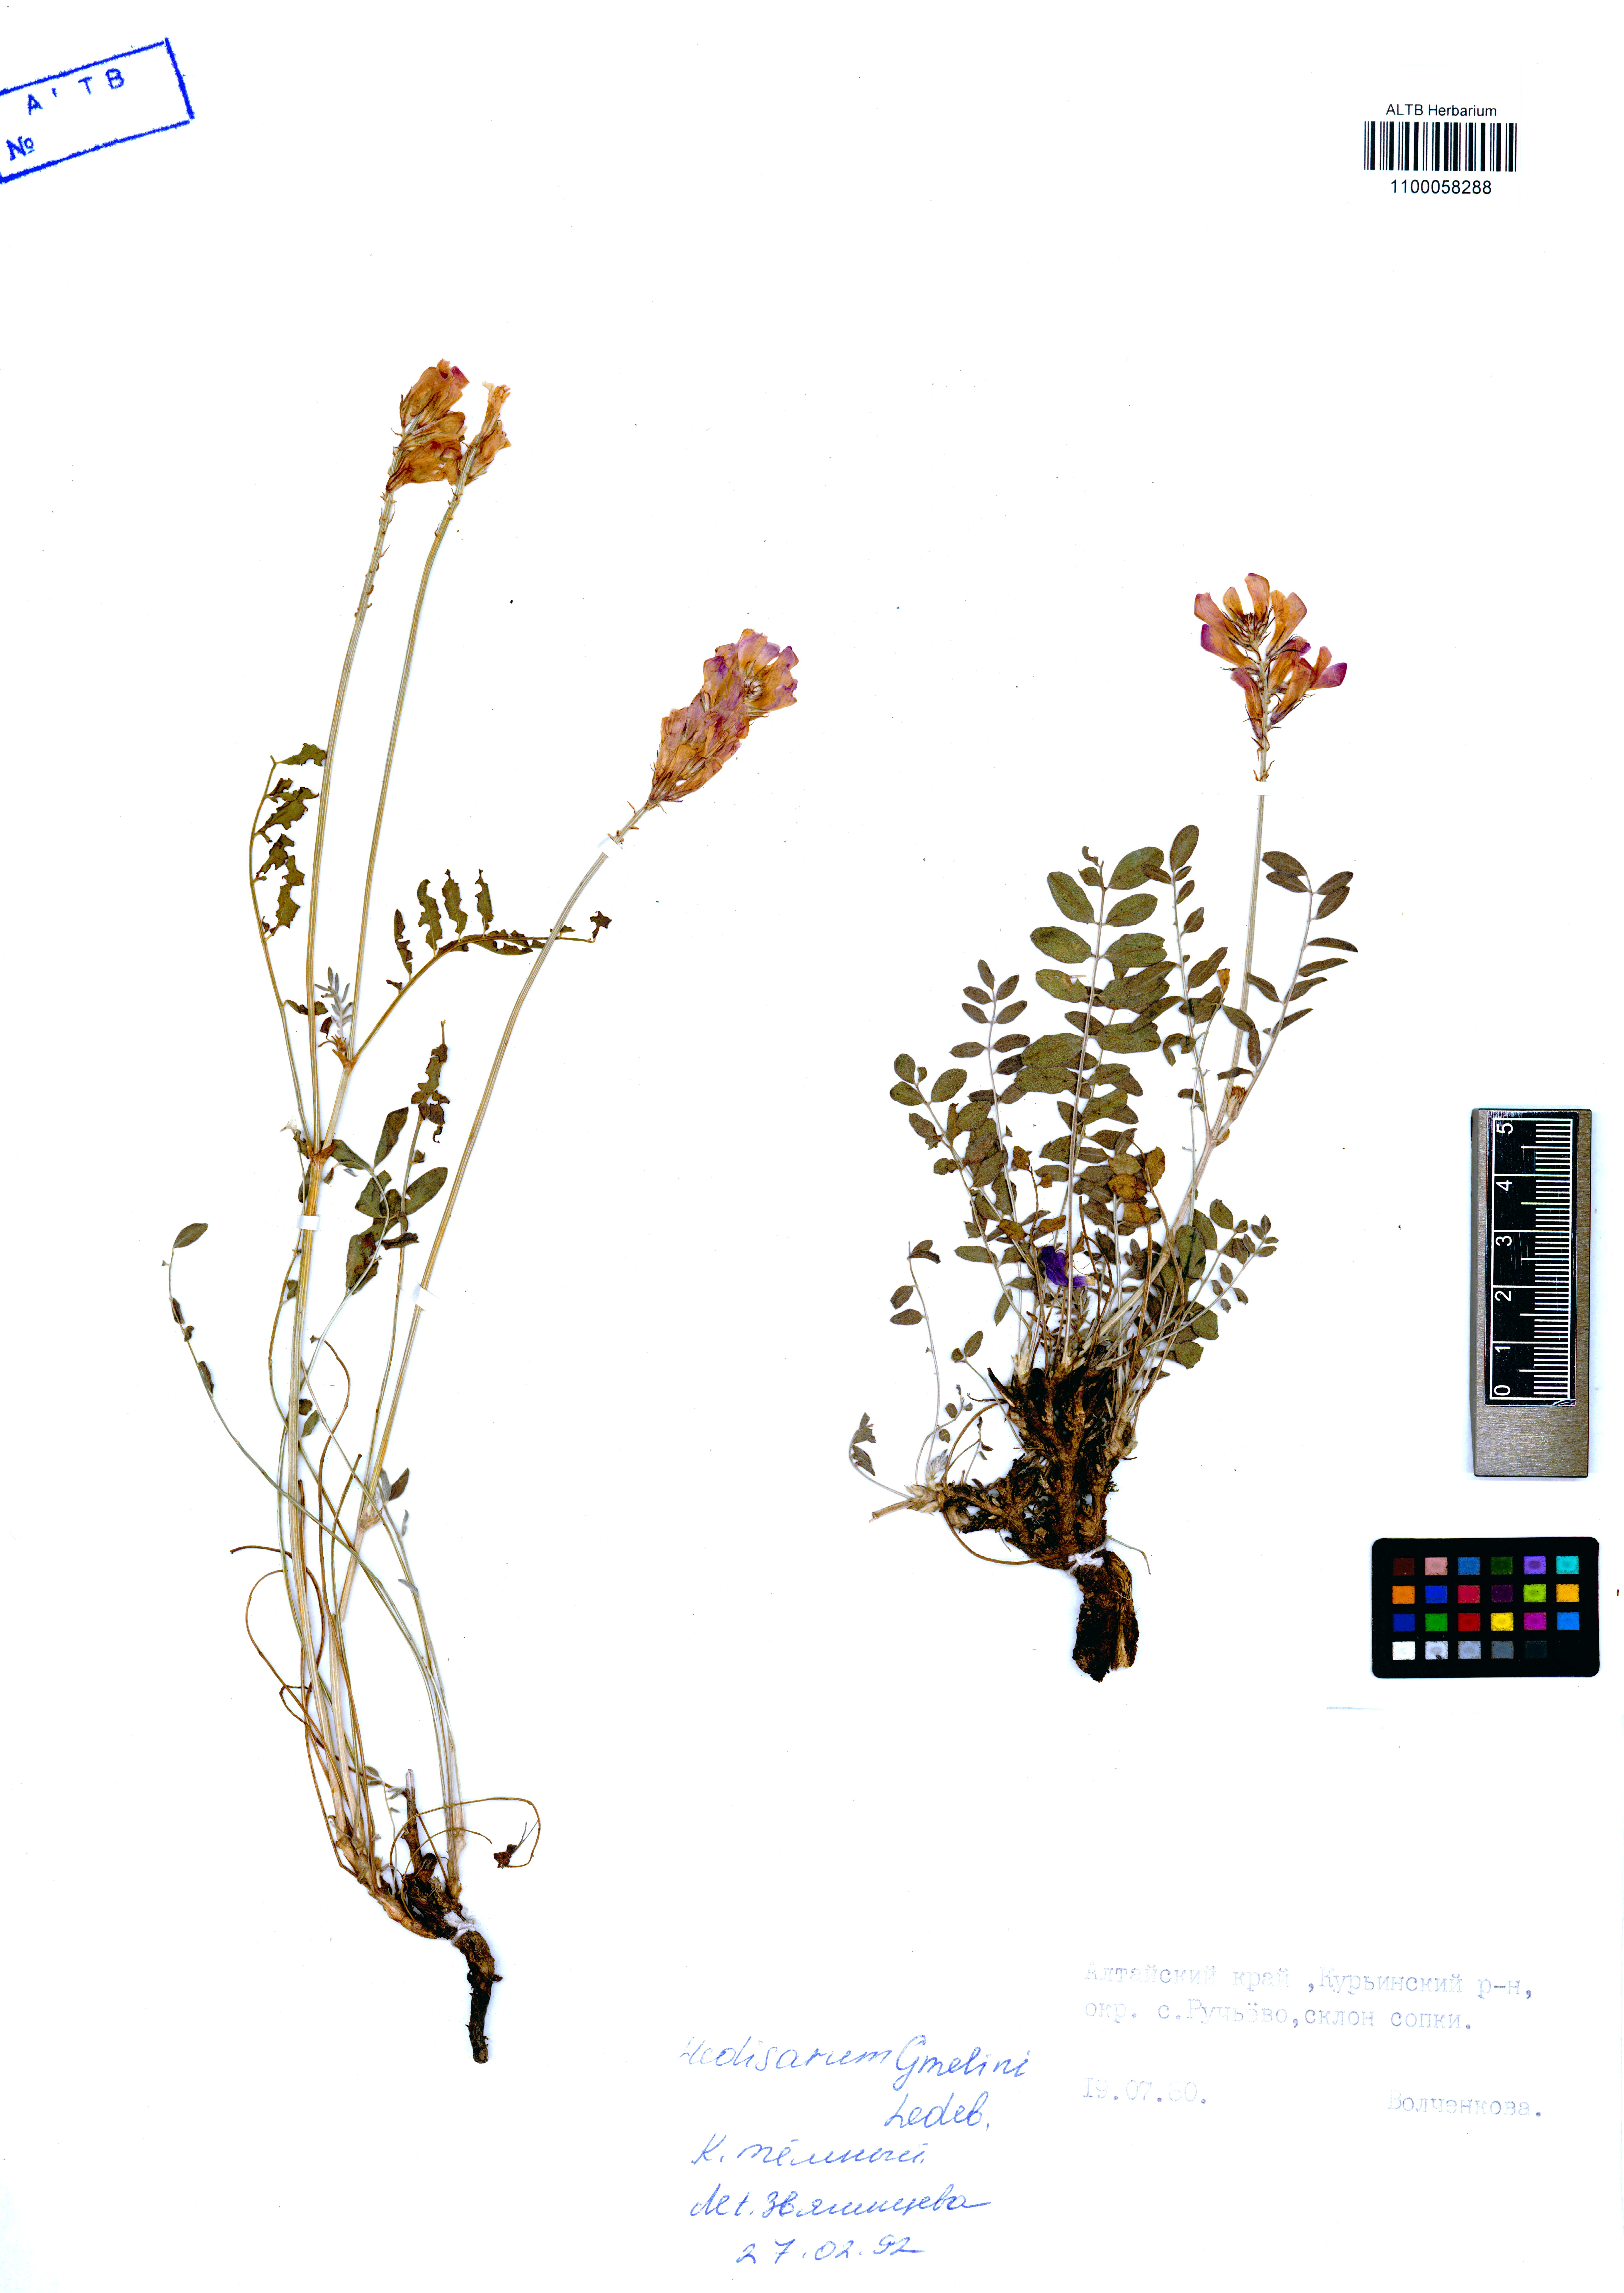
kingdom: Plantae
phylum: Tracheophyta
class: Magnoliopsida
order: Fabales
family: Fabaceae
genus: Hedysarum
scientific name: Hedysarum gmelinii
